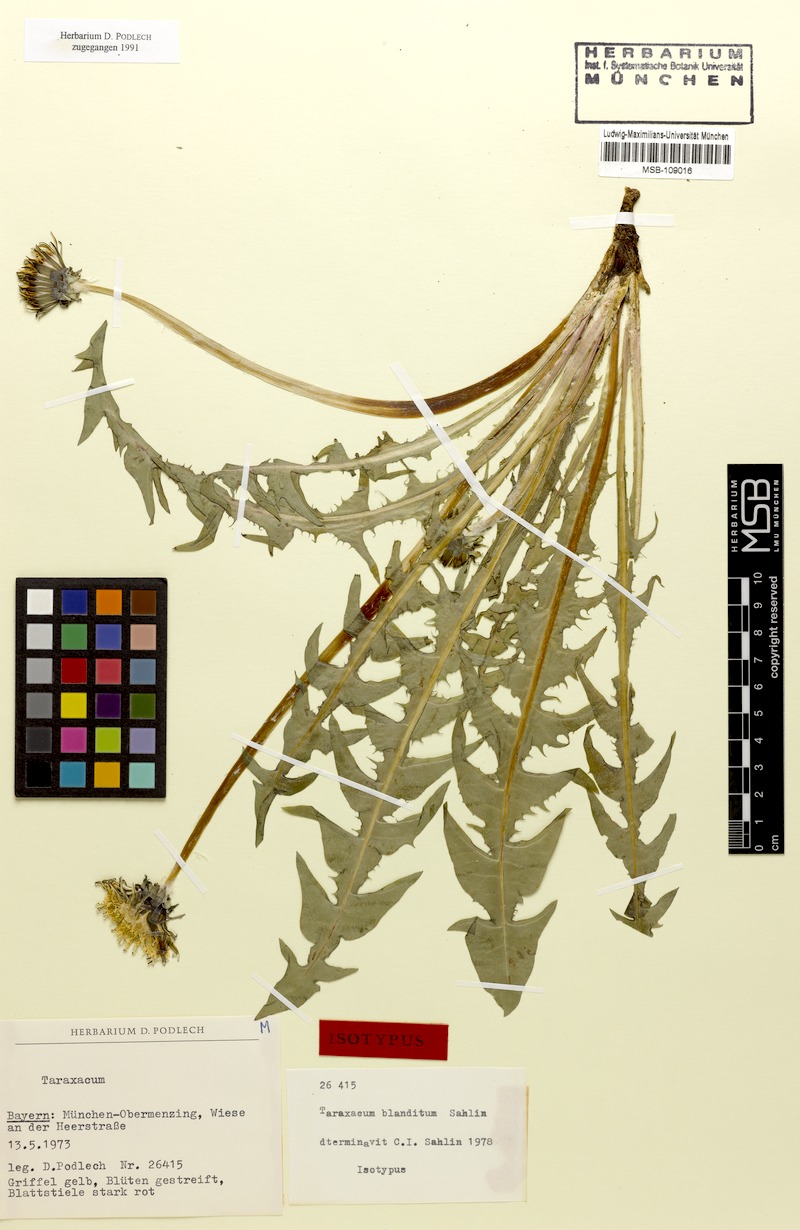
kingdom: Plantae
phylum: Tracheophyta
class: Magnoliopsida
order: Asterales
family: Asteraceae
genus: Taraxacum
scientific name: Taraxacum blanditum
